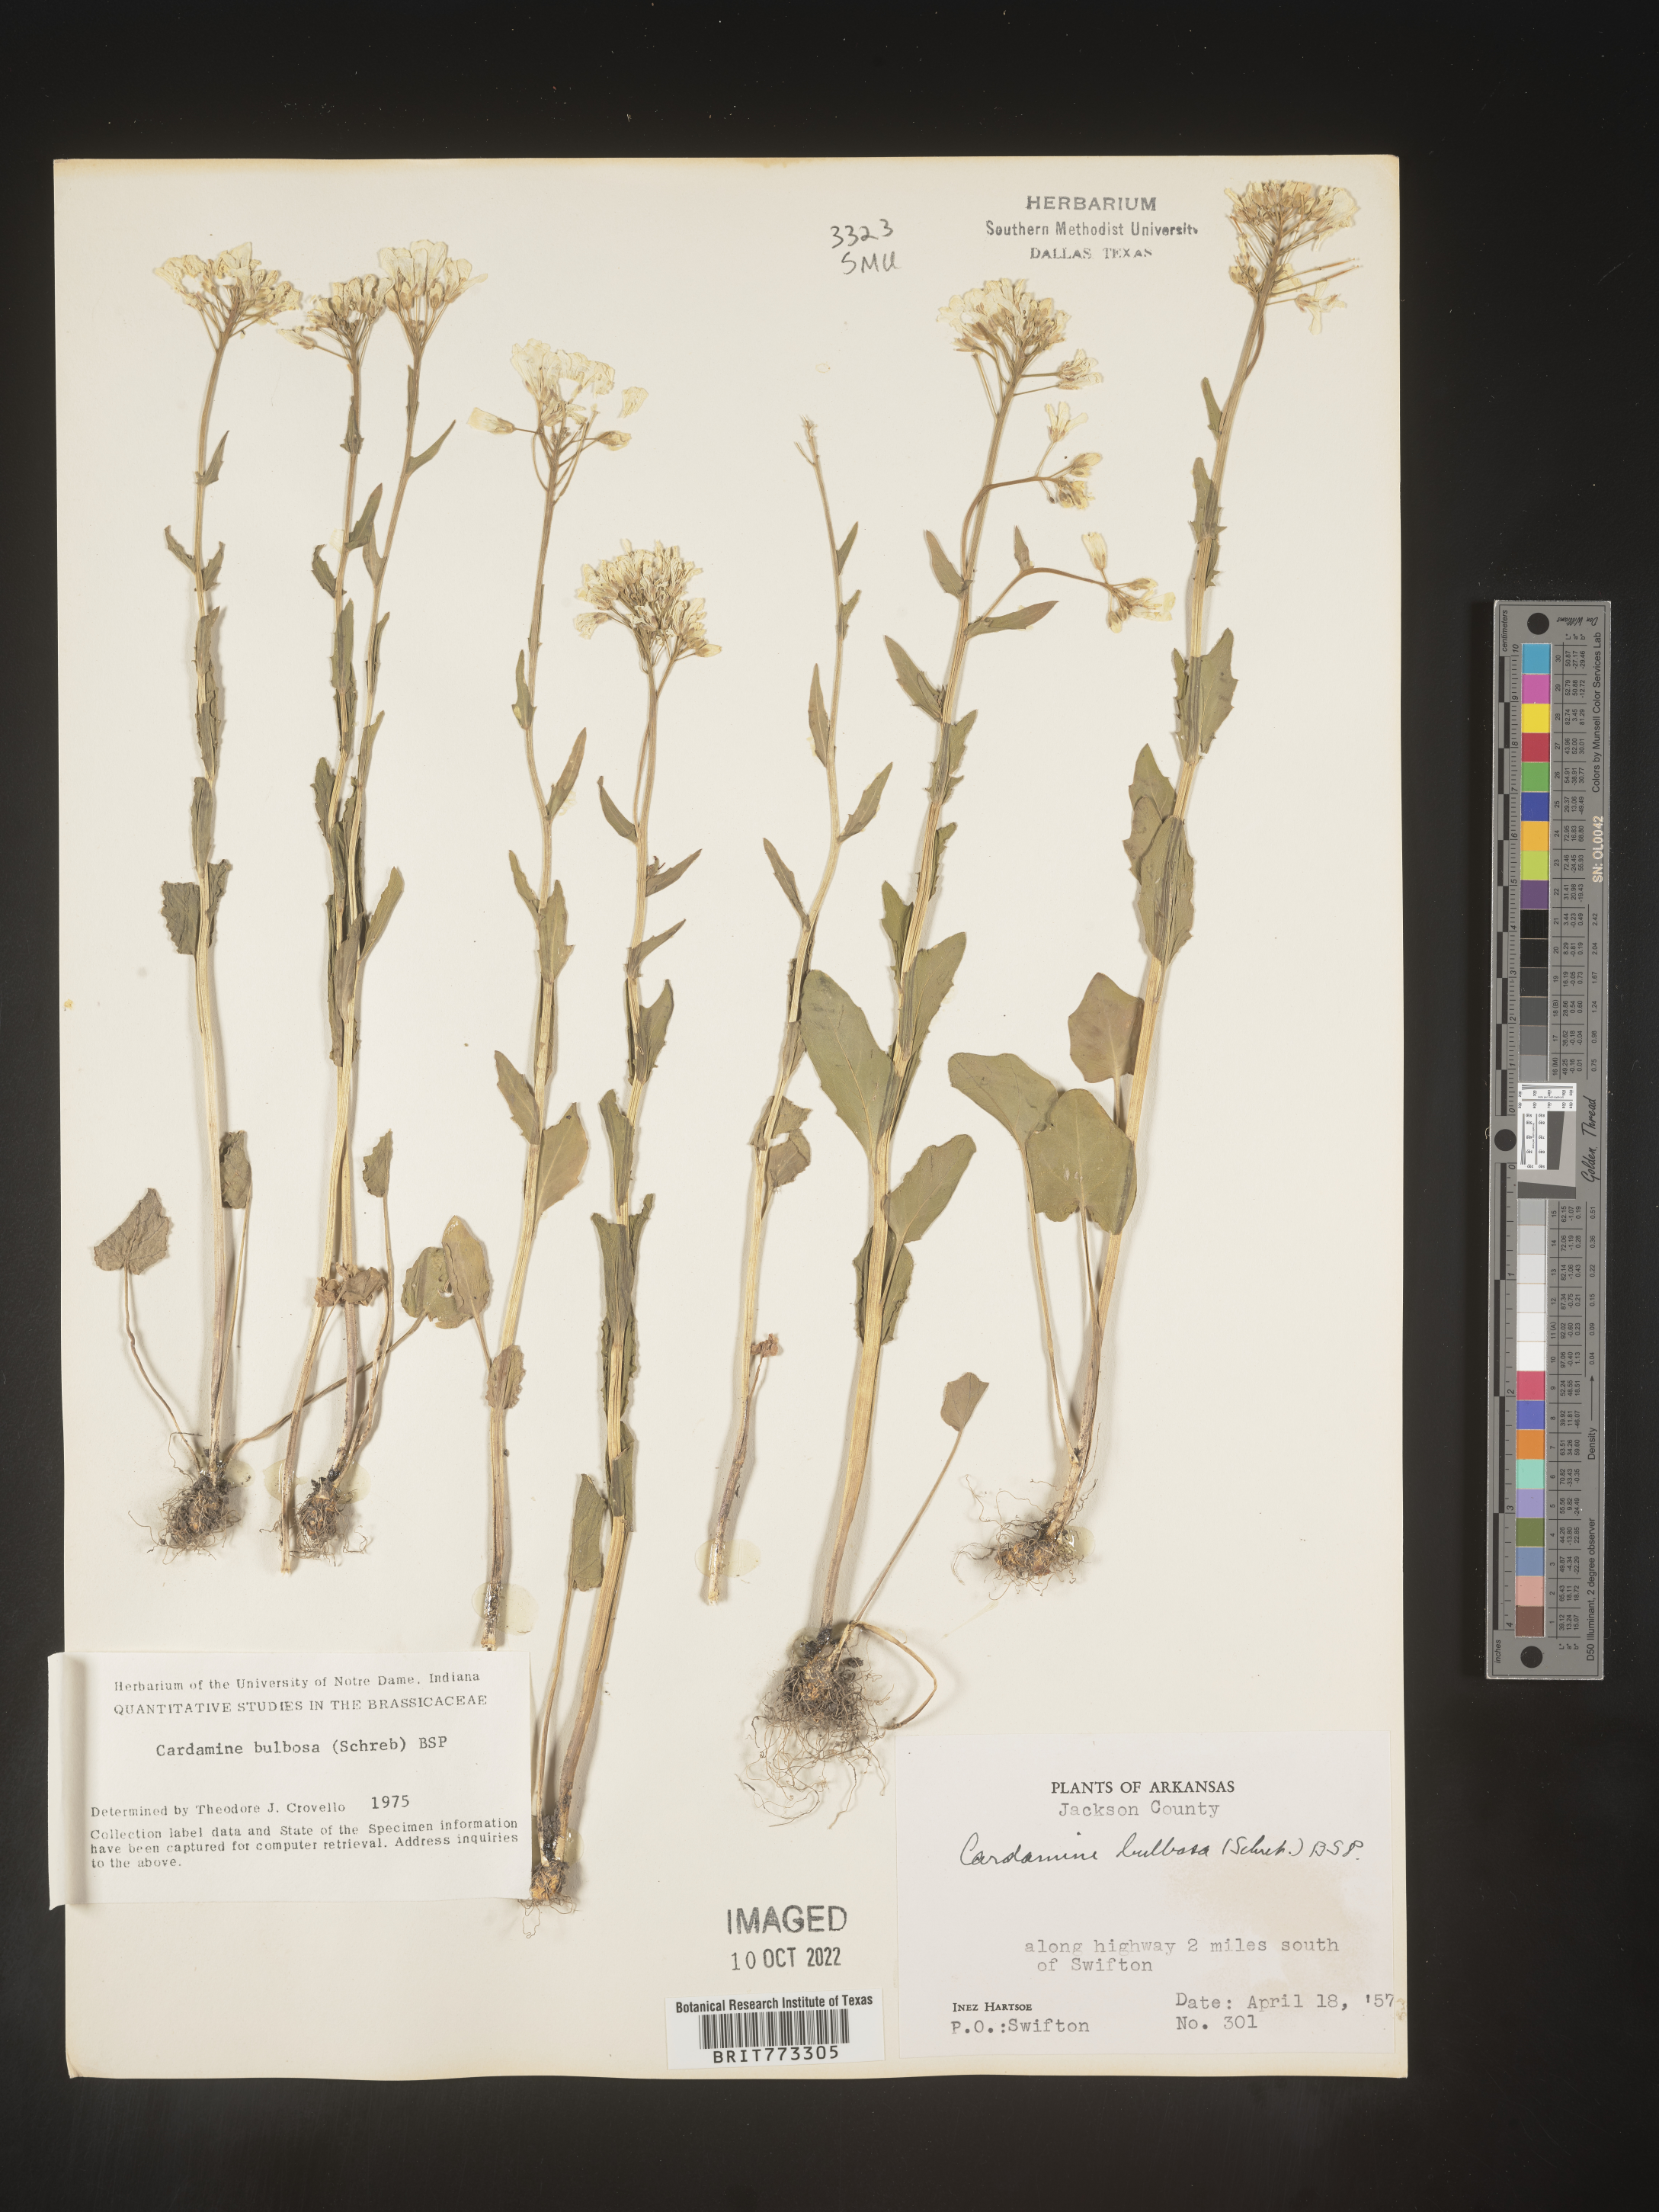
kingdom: Plantae
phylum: Tracheophyta
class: Magnoliopsida
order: Brassicales
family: Brassicaceae
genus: Cardamine
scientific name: Cardamine bulbosa
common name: Spring cress
